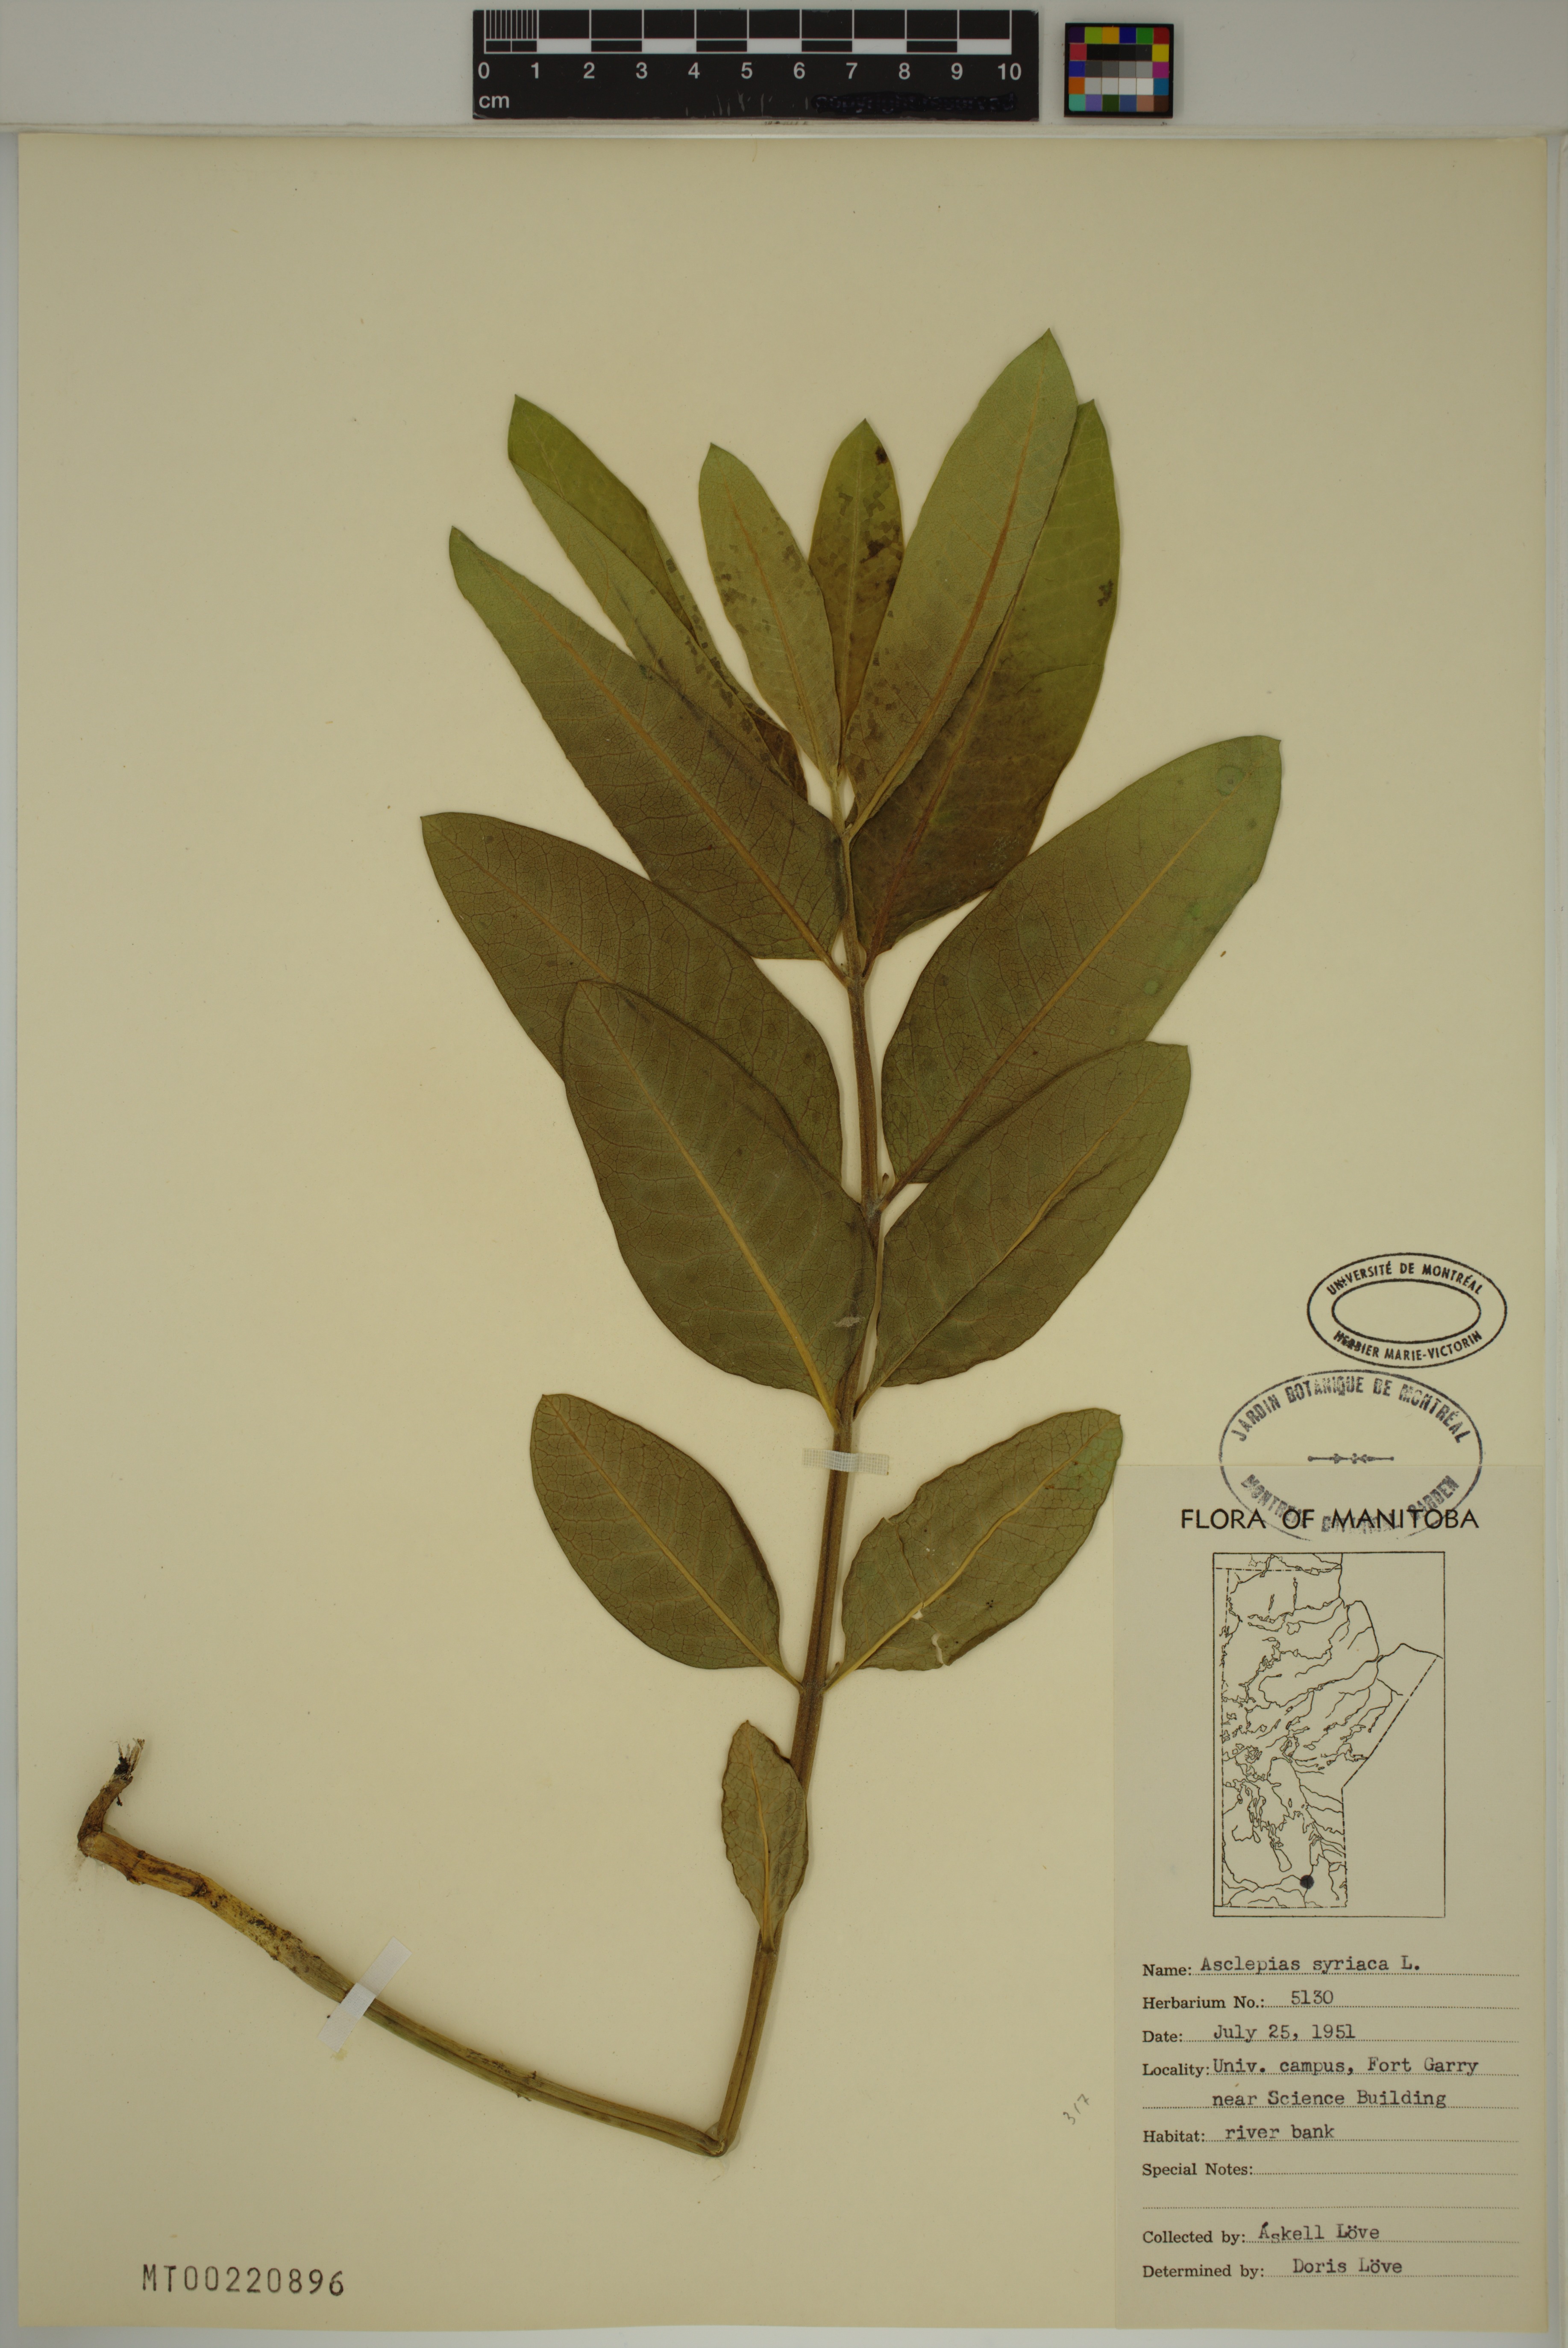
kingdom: Plantae
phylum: Tracheophyta
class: Magnoliopsida
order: Gentianales
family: Apocynaceae
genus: Asclepias
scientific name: Asclepias syriaca
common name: Common milkweed
